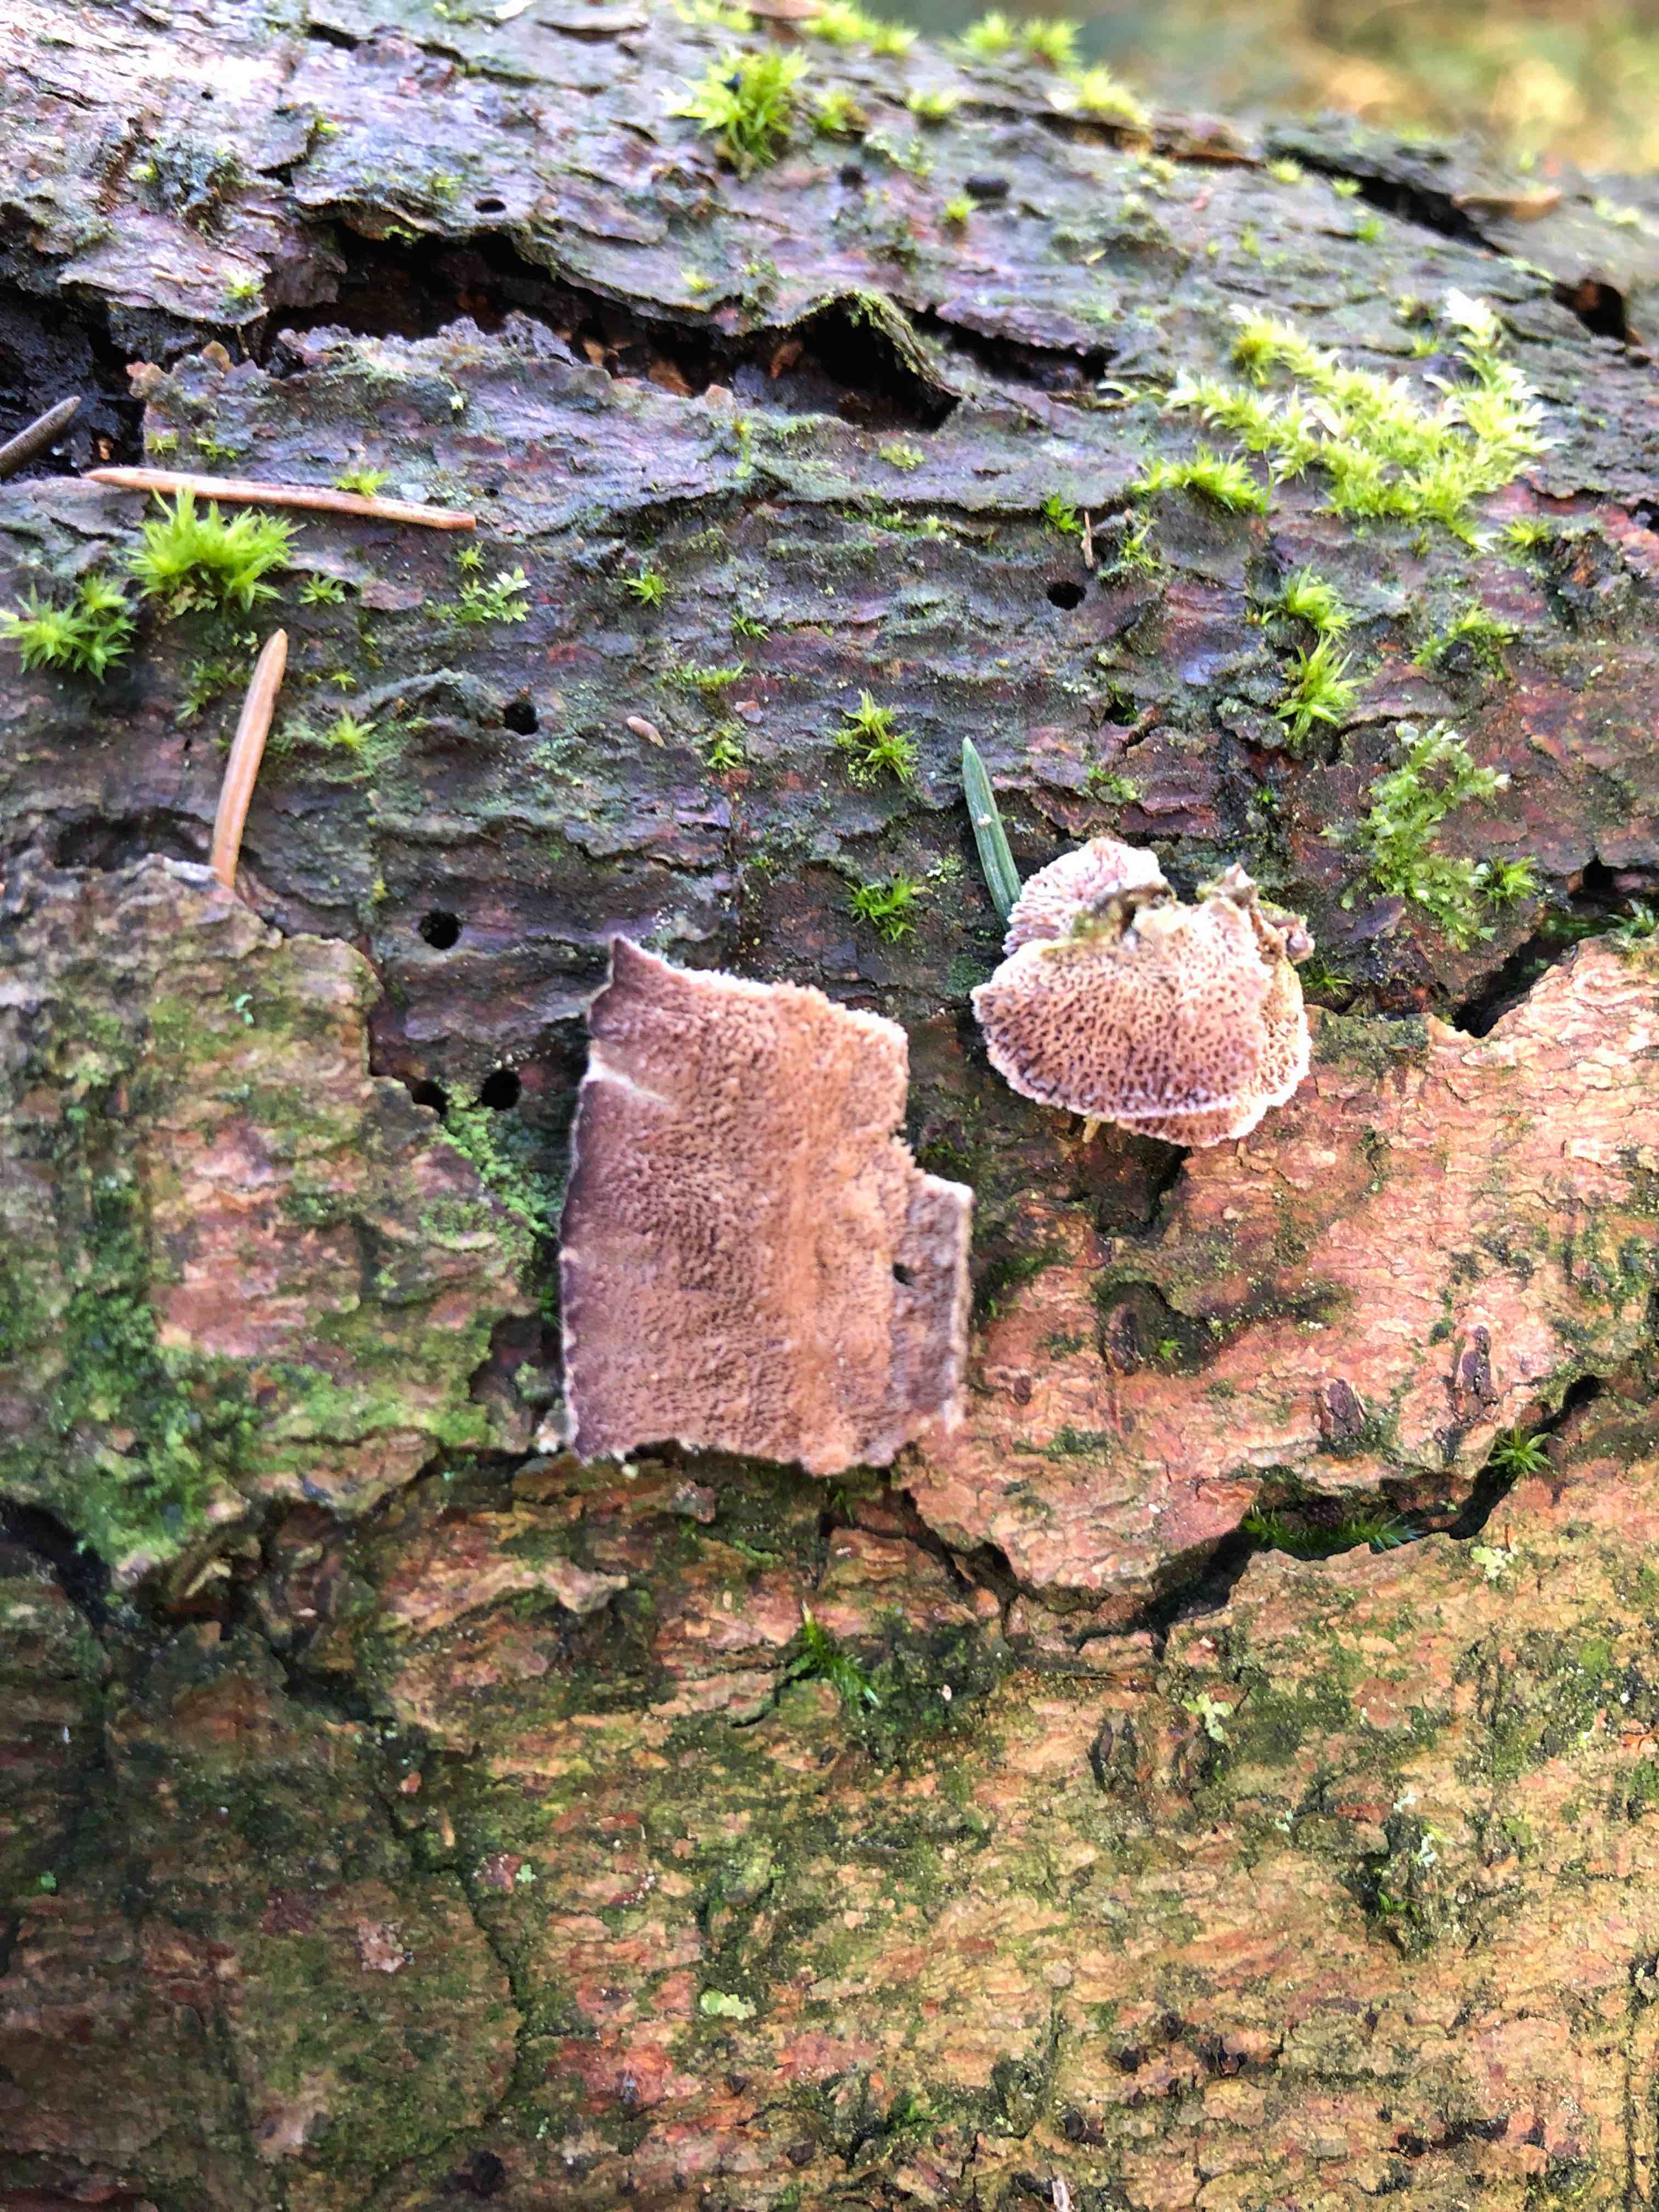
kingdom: Fungi
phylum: Basidiomycota
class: Agaricomycetes
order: Hymenochaetales
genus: Trichaptum
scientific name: Trichaptum abietinum
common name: almindelig violporesvamp
